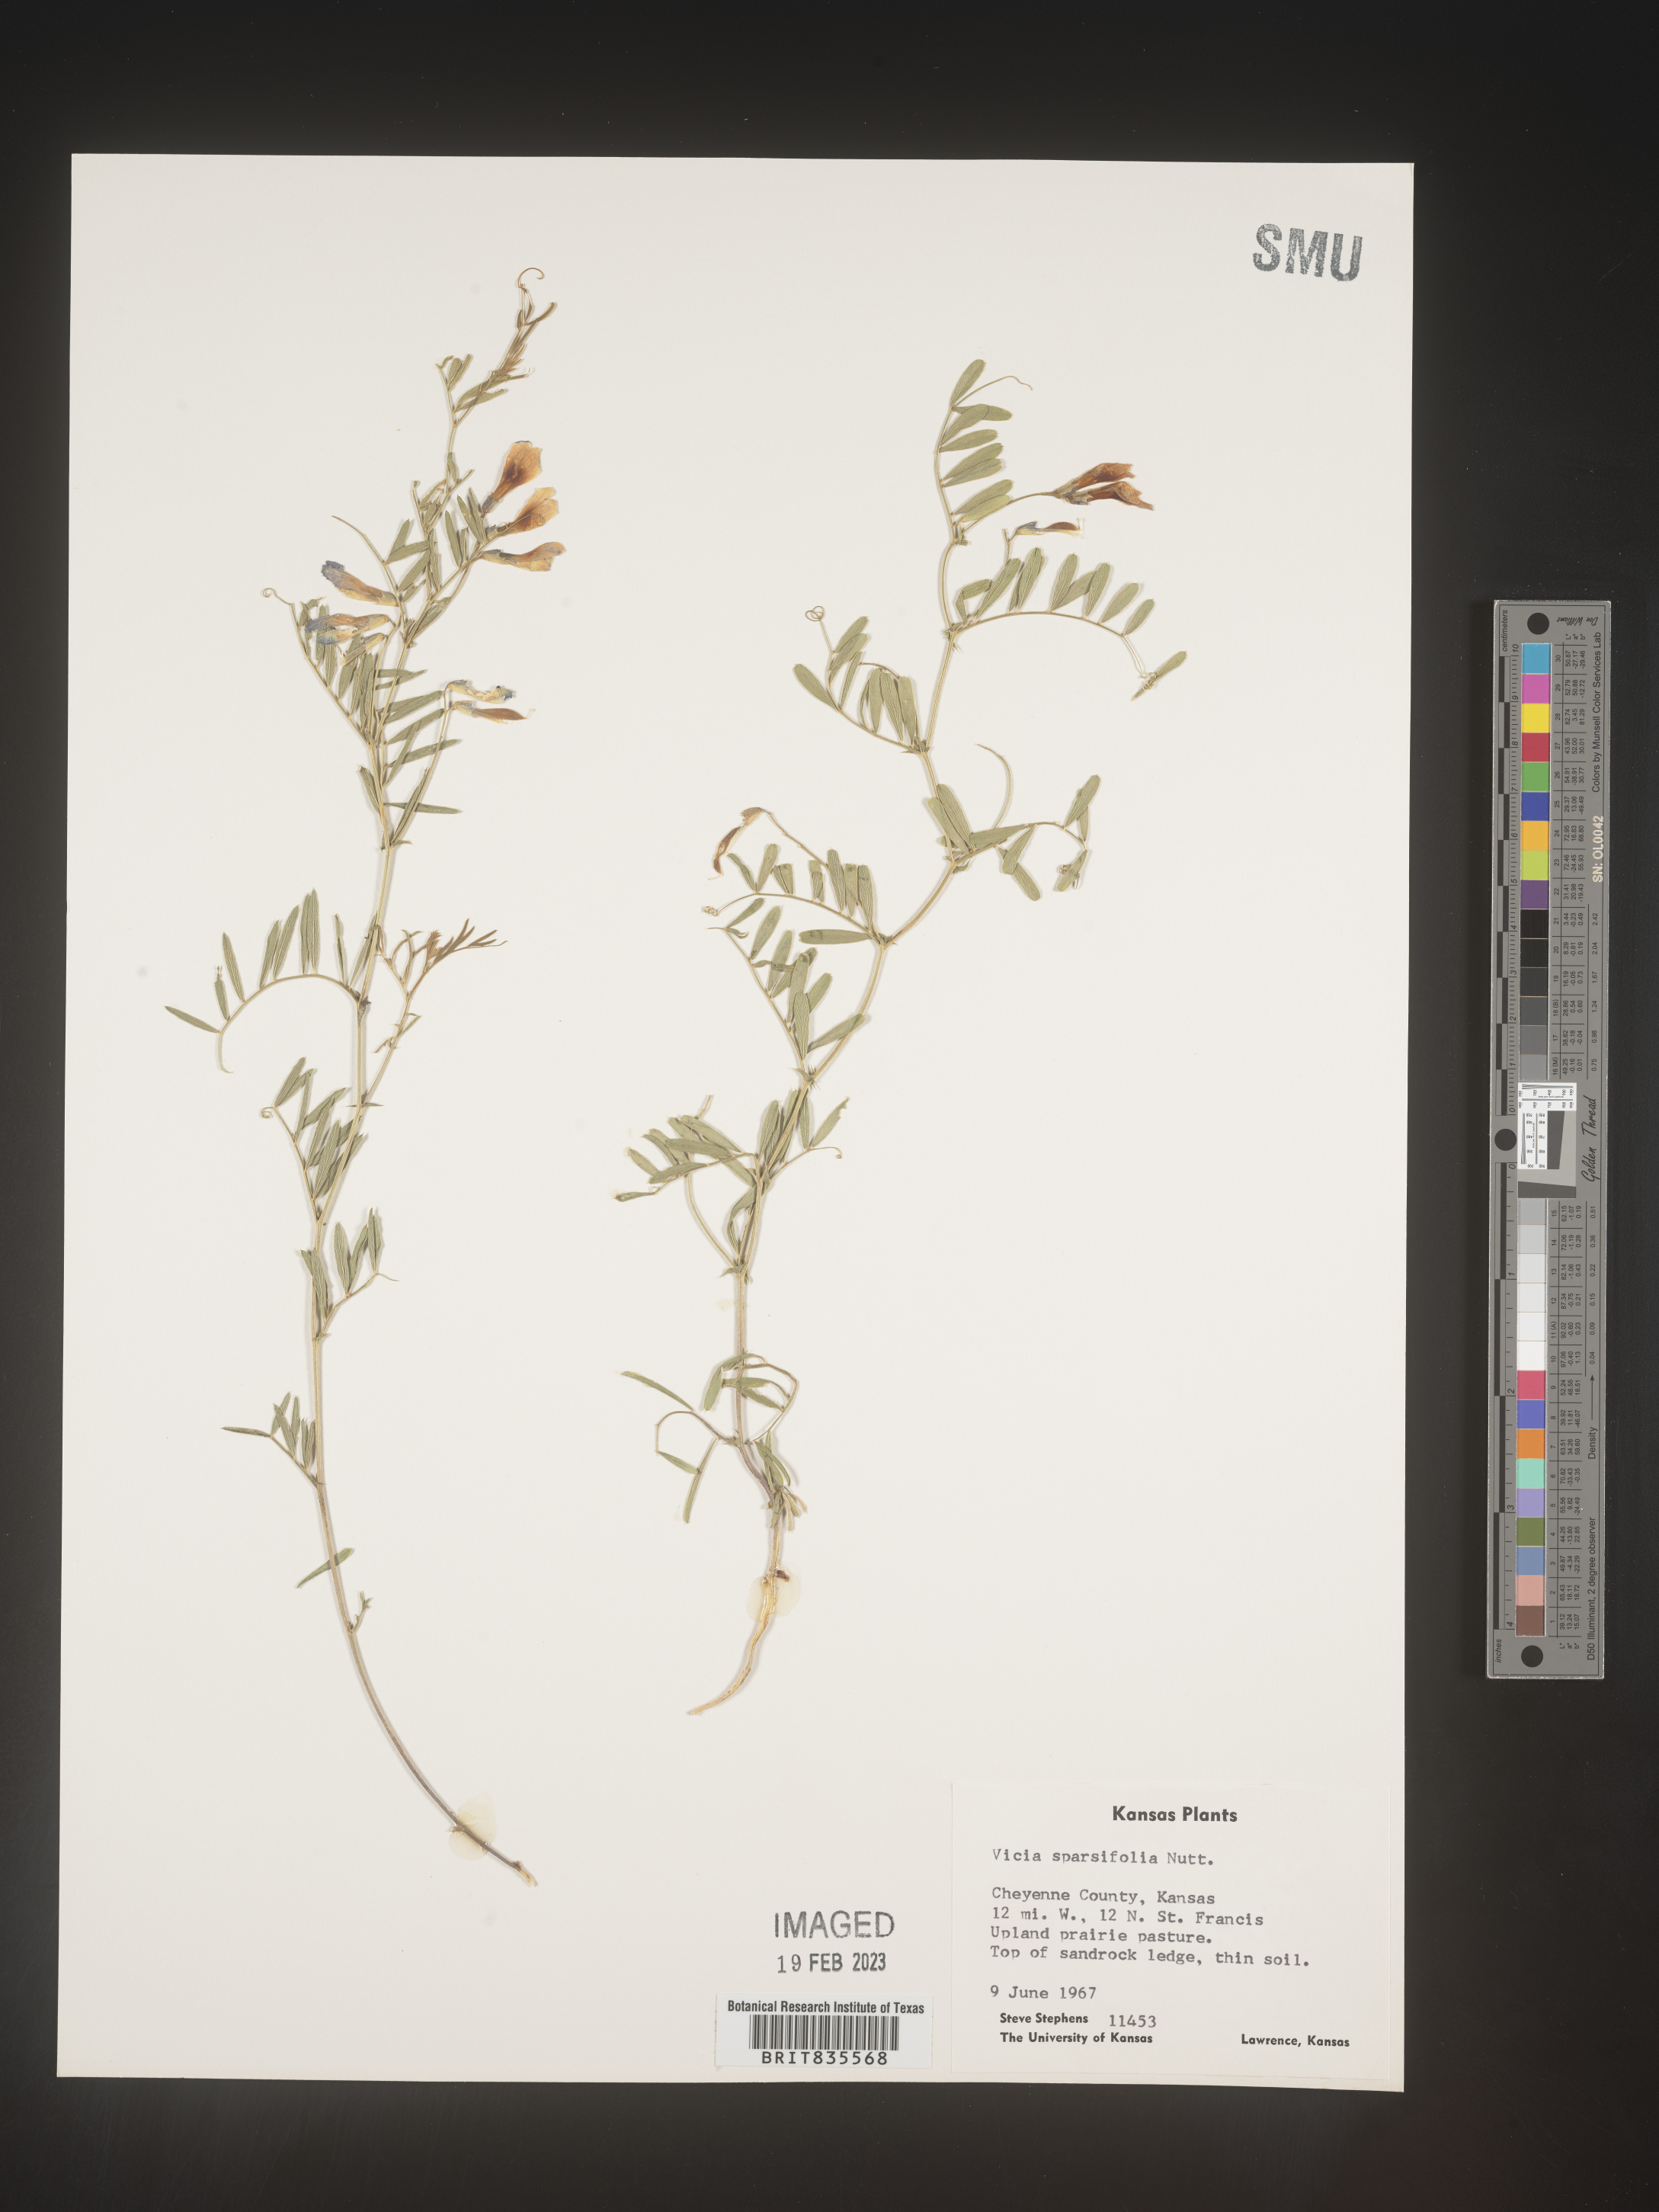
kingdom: Plantae
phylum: Tracheophyta
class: Magnoliopsida
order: Fabales
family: Fabaceae
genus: Vicia
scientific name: Vicia americana
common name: American vetch
